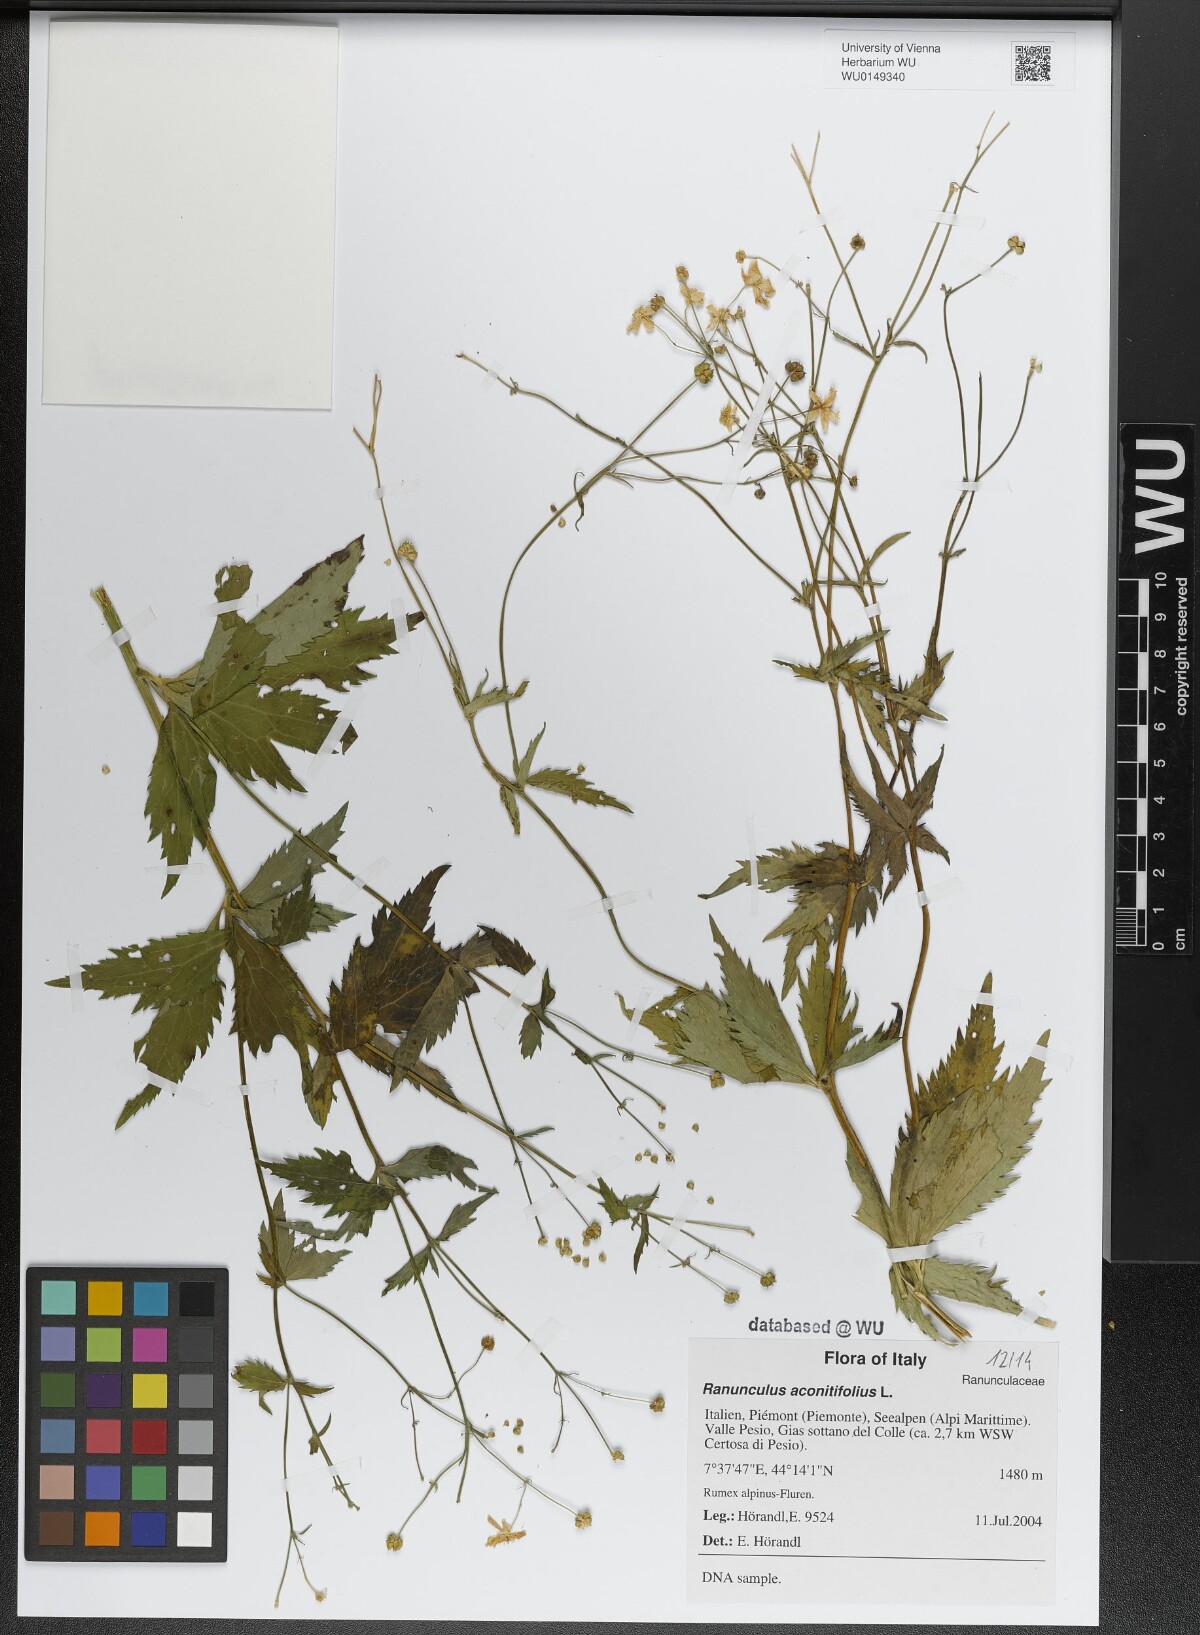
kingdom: Plantae
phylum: Tracheophyta
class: Magnoliopsida
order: Ranunculales
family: Ranunculaceae
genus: Ranunculus
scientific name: Ranunculus aconitifolius
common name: Aconite-leaved buttercup
